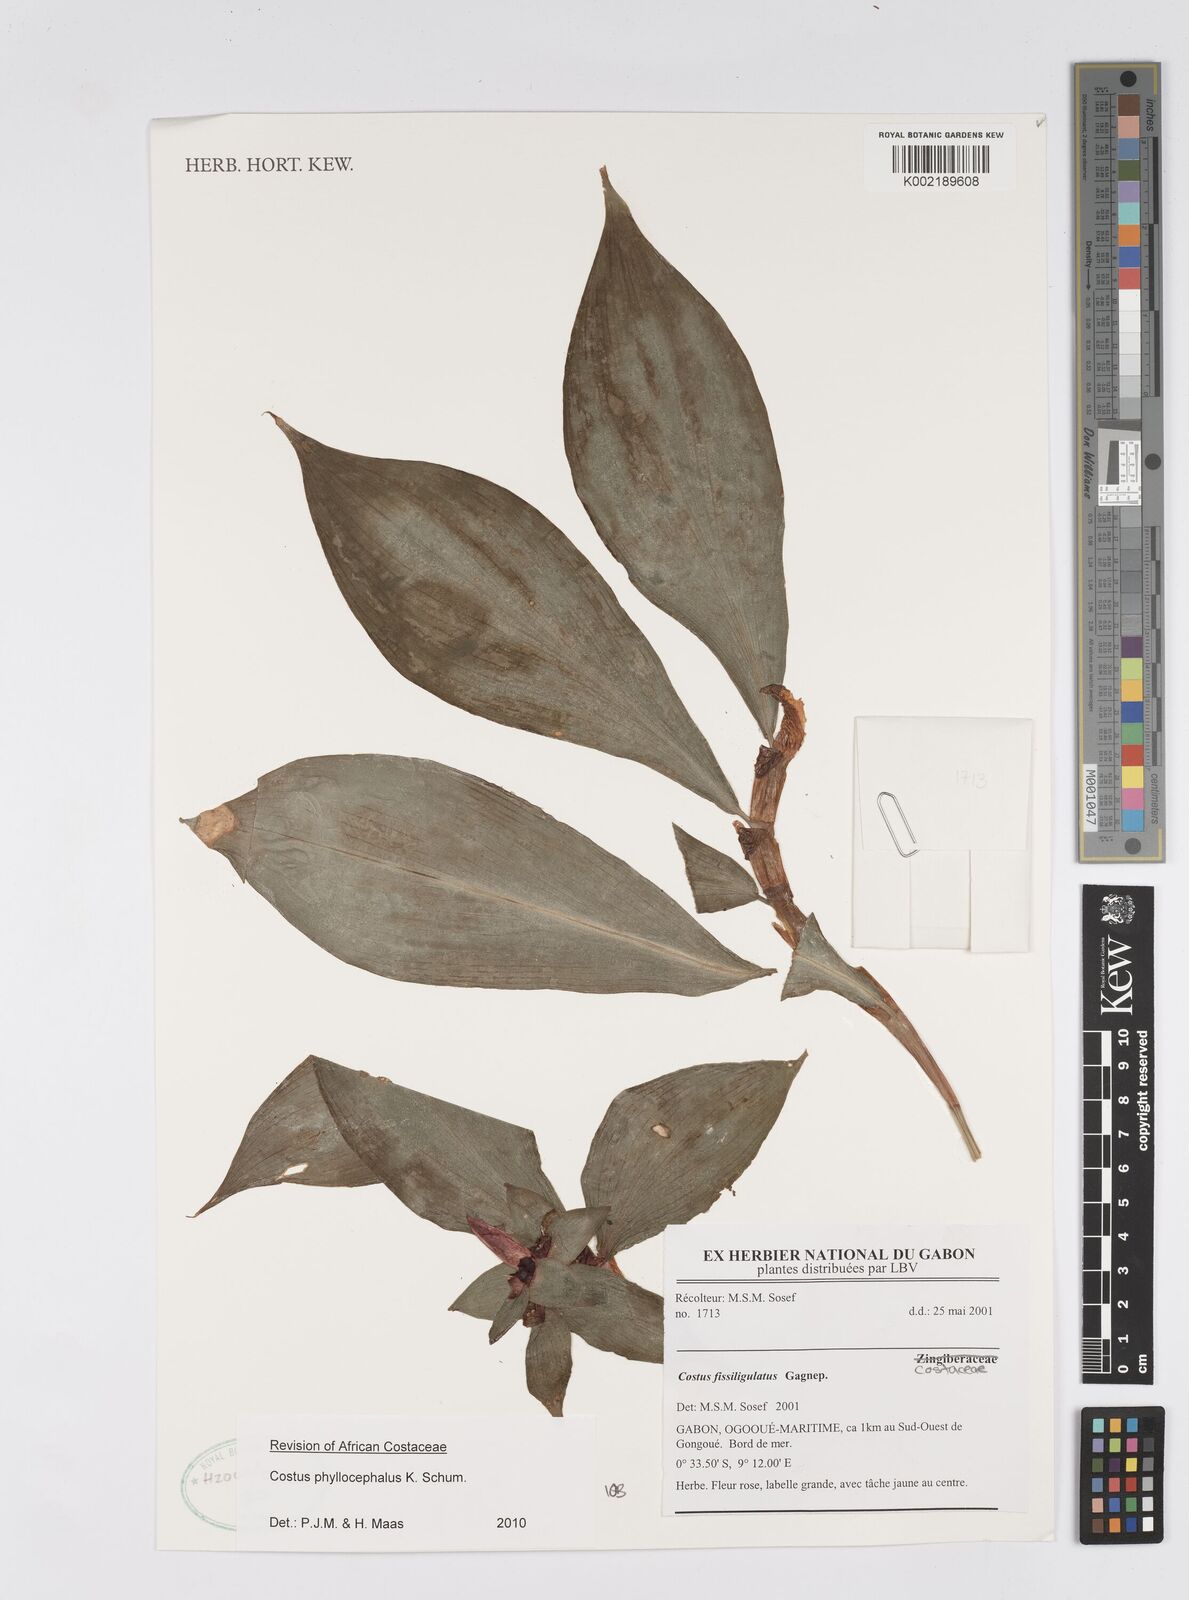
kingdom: Plantae
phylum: Tracheophyta
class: Liliopsida
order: Zingiberales
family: Costaceae
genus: Costus
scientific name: Costus phyllocephalus
